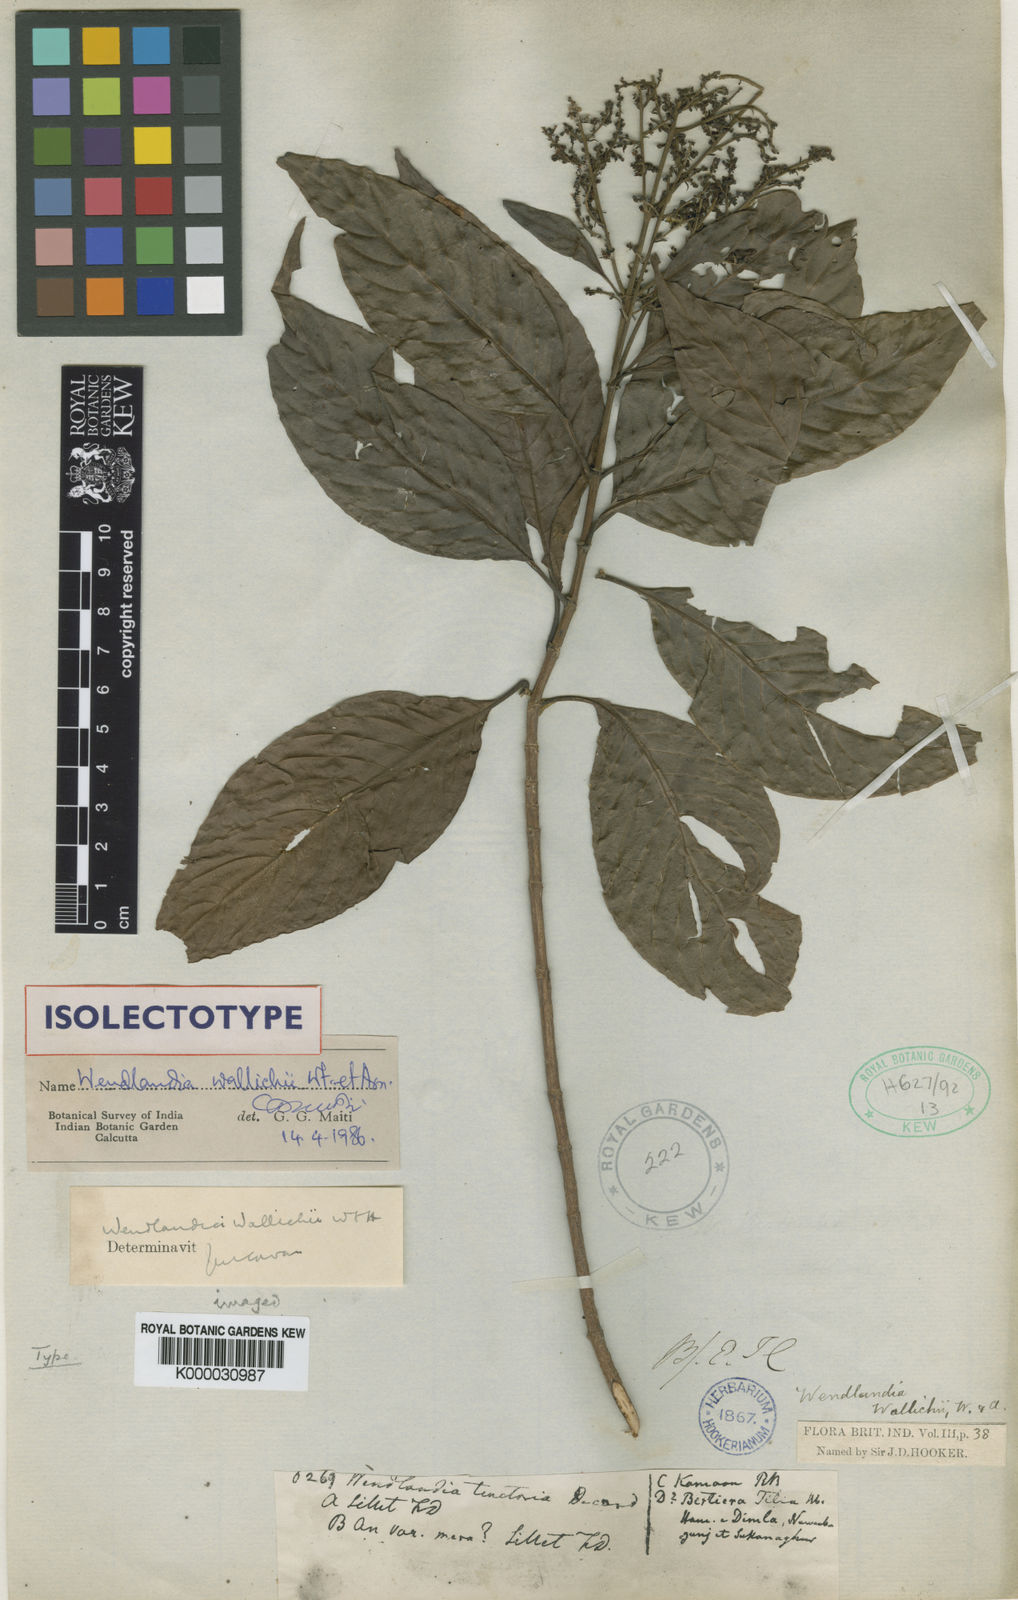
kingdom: Plantae
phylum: Tracheophyta
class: Magnoliopsida
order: Gentianales
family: Rubiaceae
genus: Wendlandia
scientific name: Wendlandia wallichii
